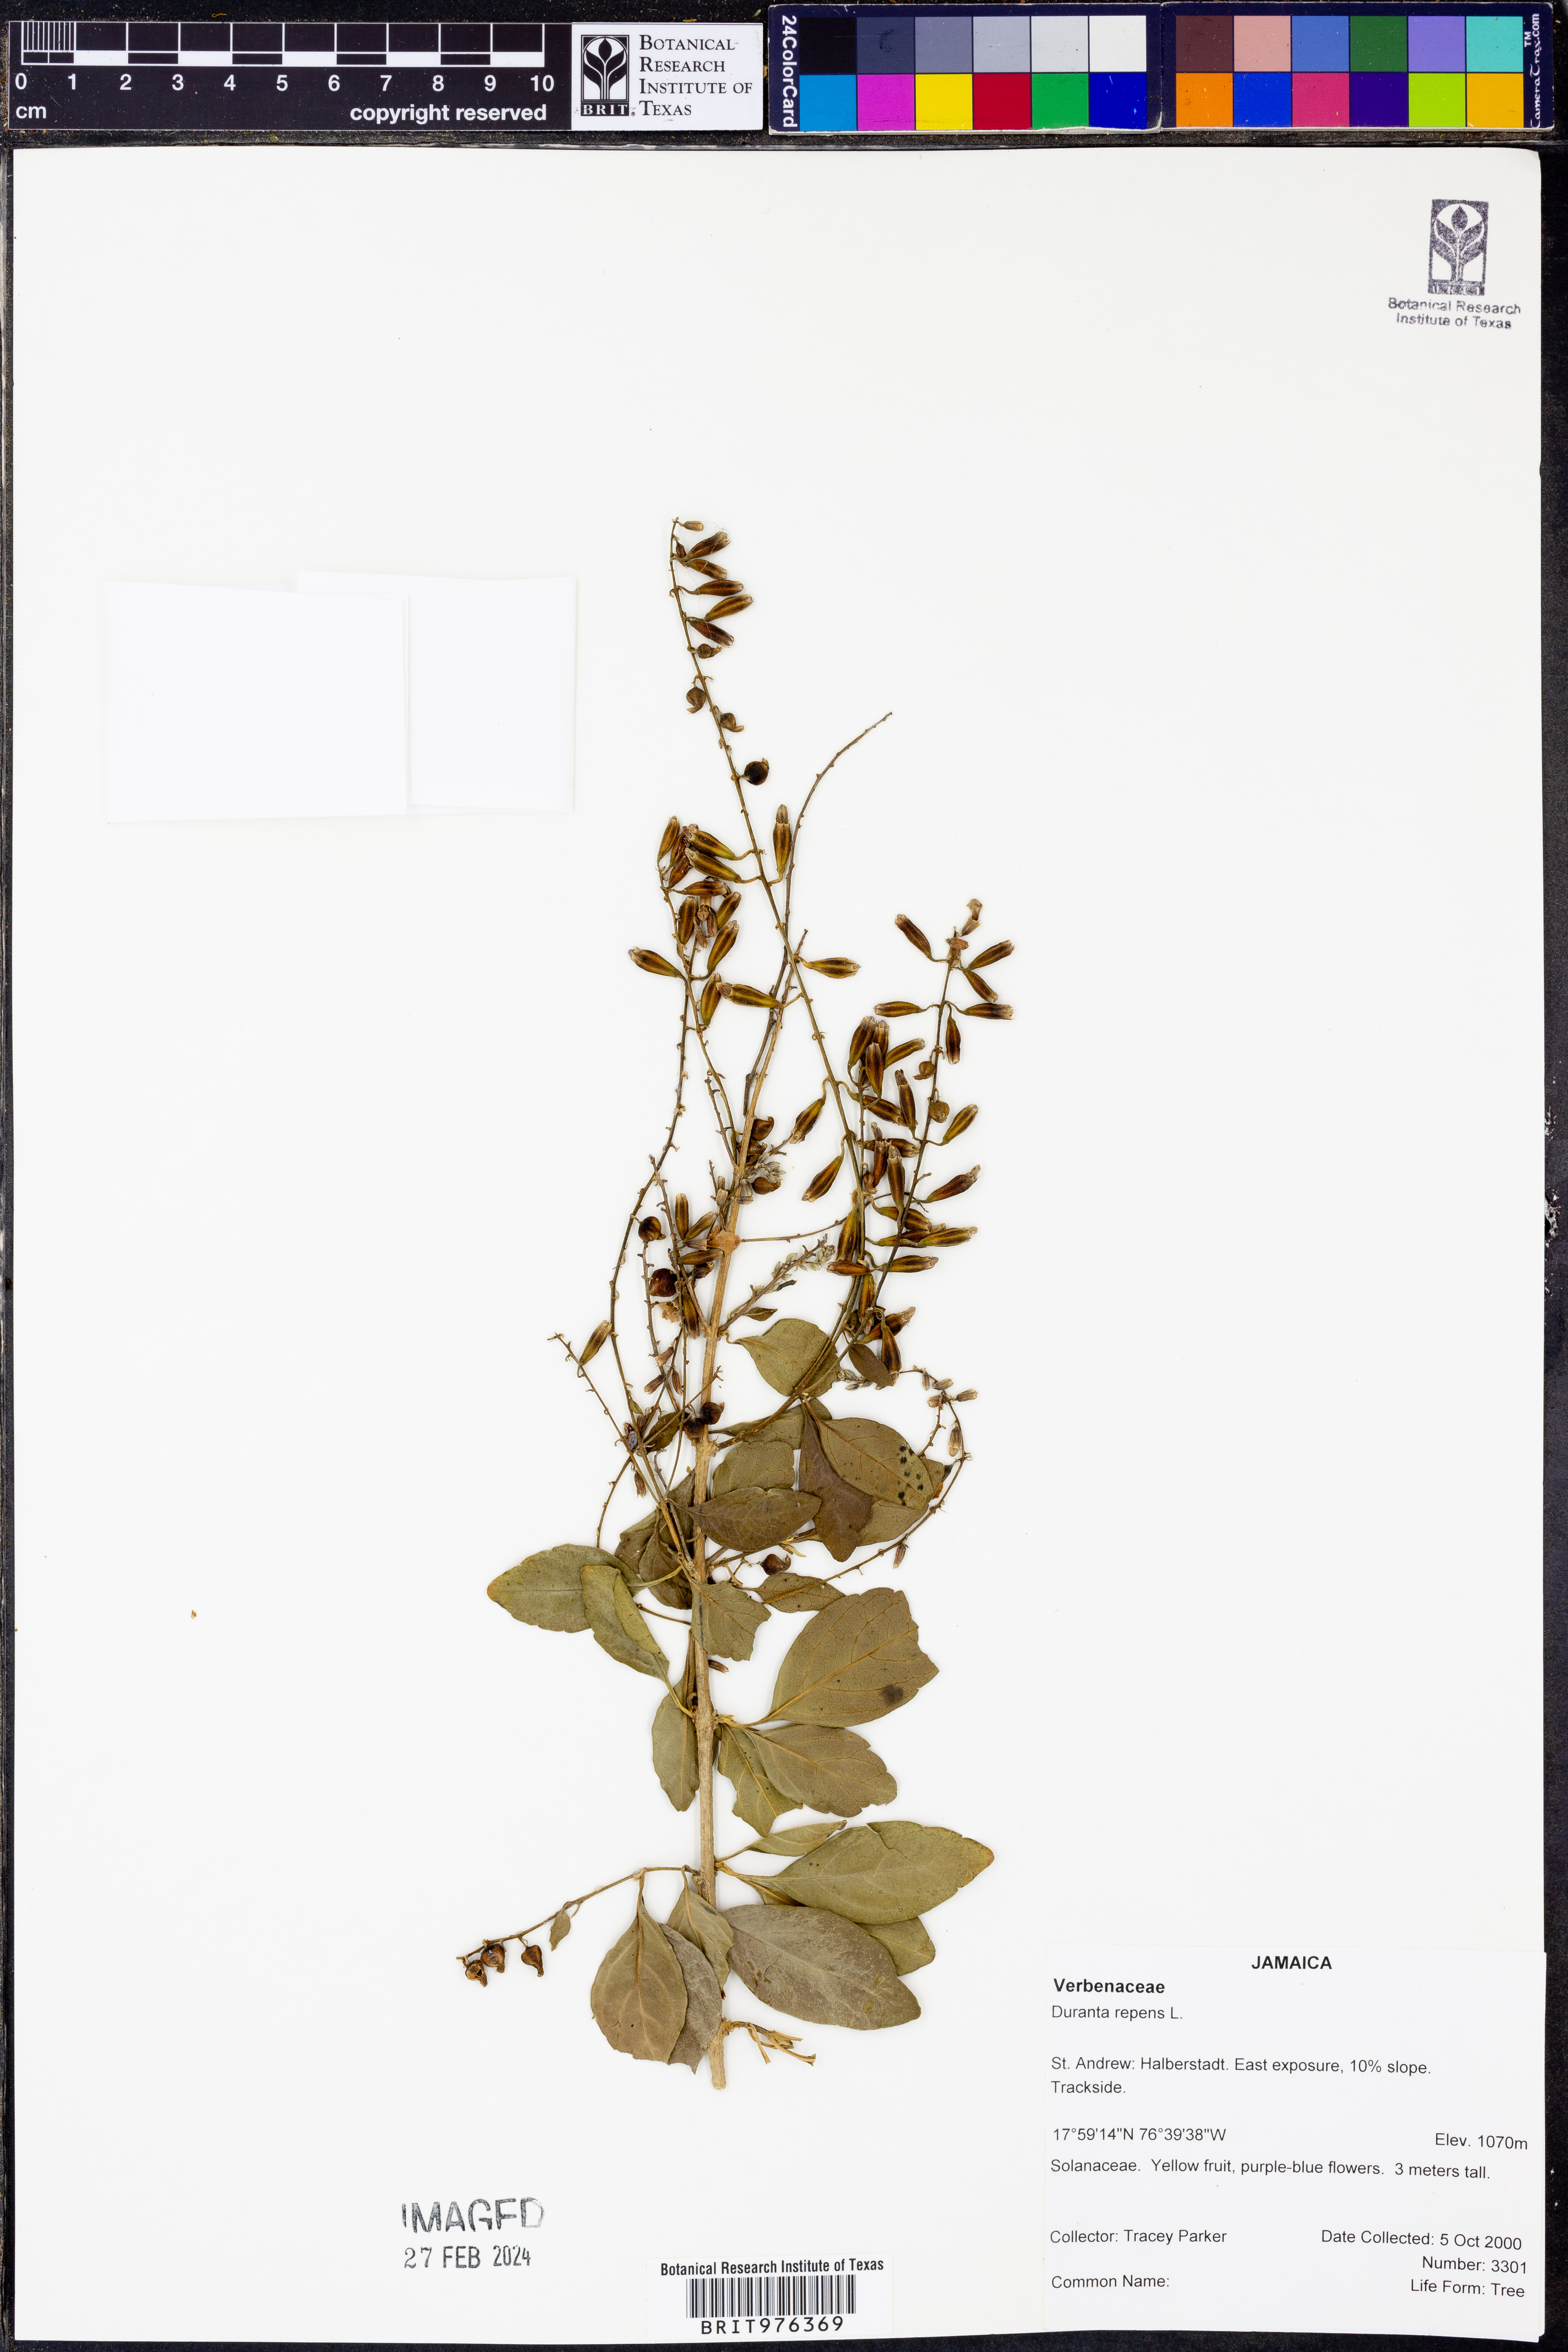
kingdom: Plantae
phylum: Tracheophyta
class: Magnoliopsida
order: Lamiales
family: Verbenaceae
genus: Duranta
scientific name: Duranta
